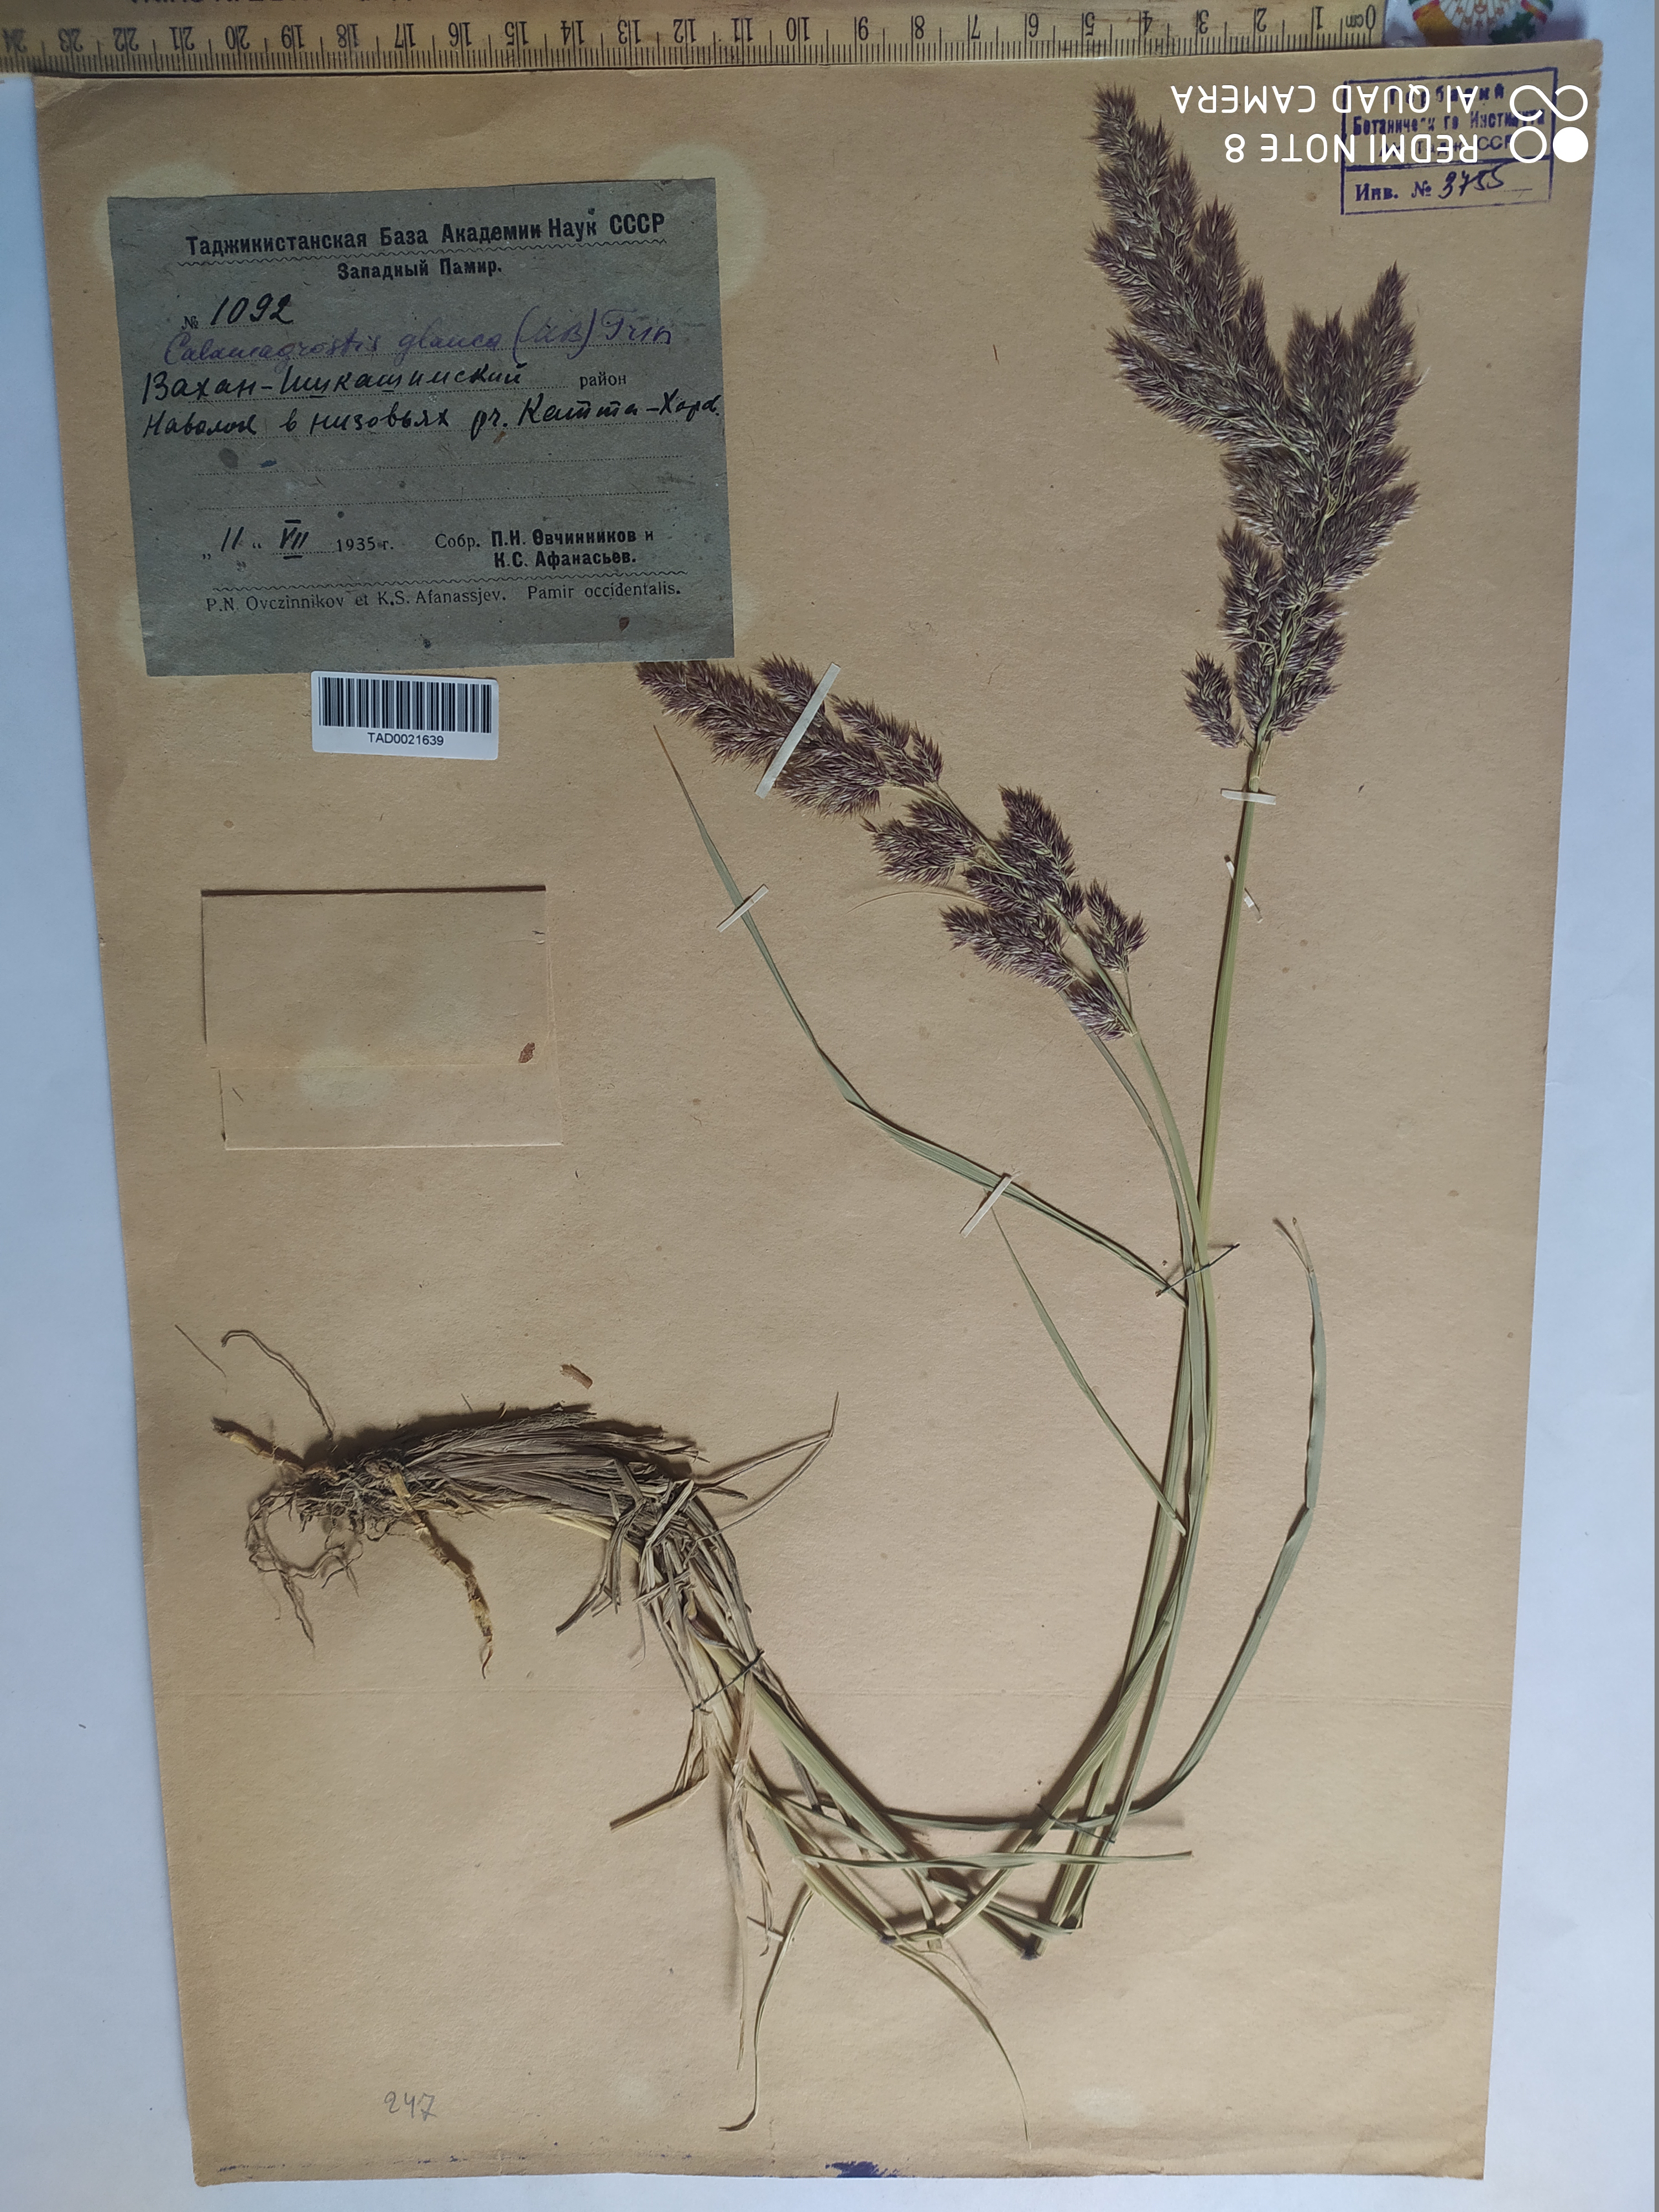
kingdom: Plantae
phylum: Tracheophyta
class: Liliopsida
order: Poales
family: Poaceae
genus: Calamagrostis
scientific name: Calamagrostis pseudophragmites
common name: Coastal small-reed
